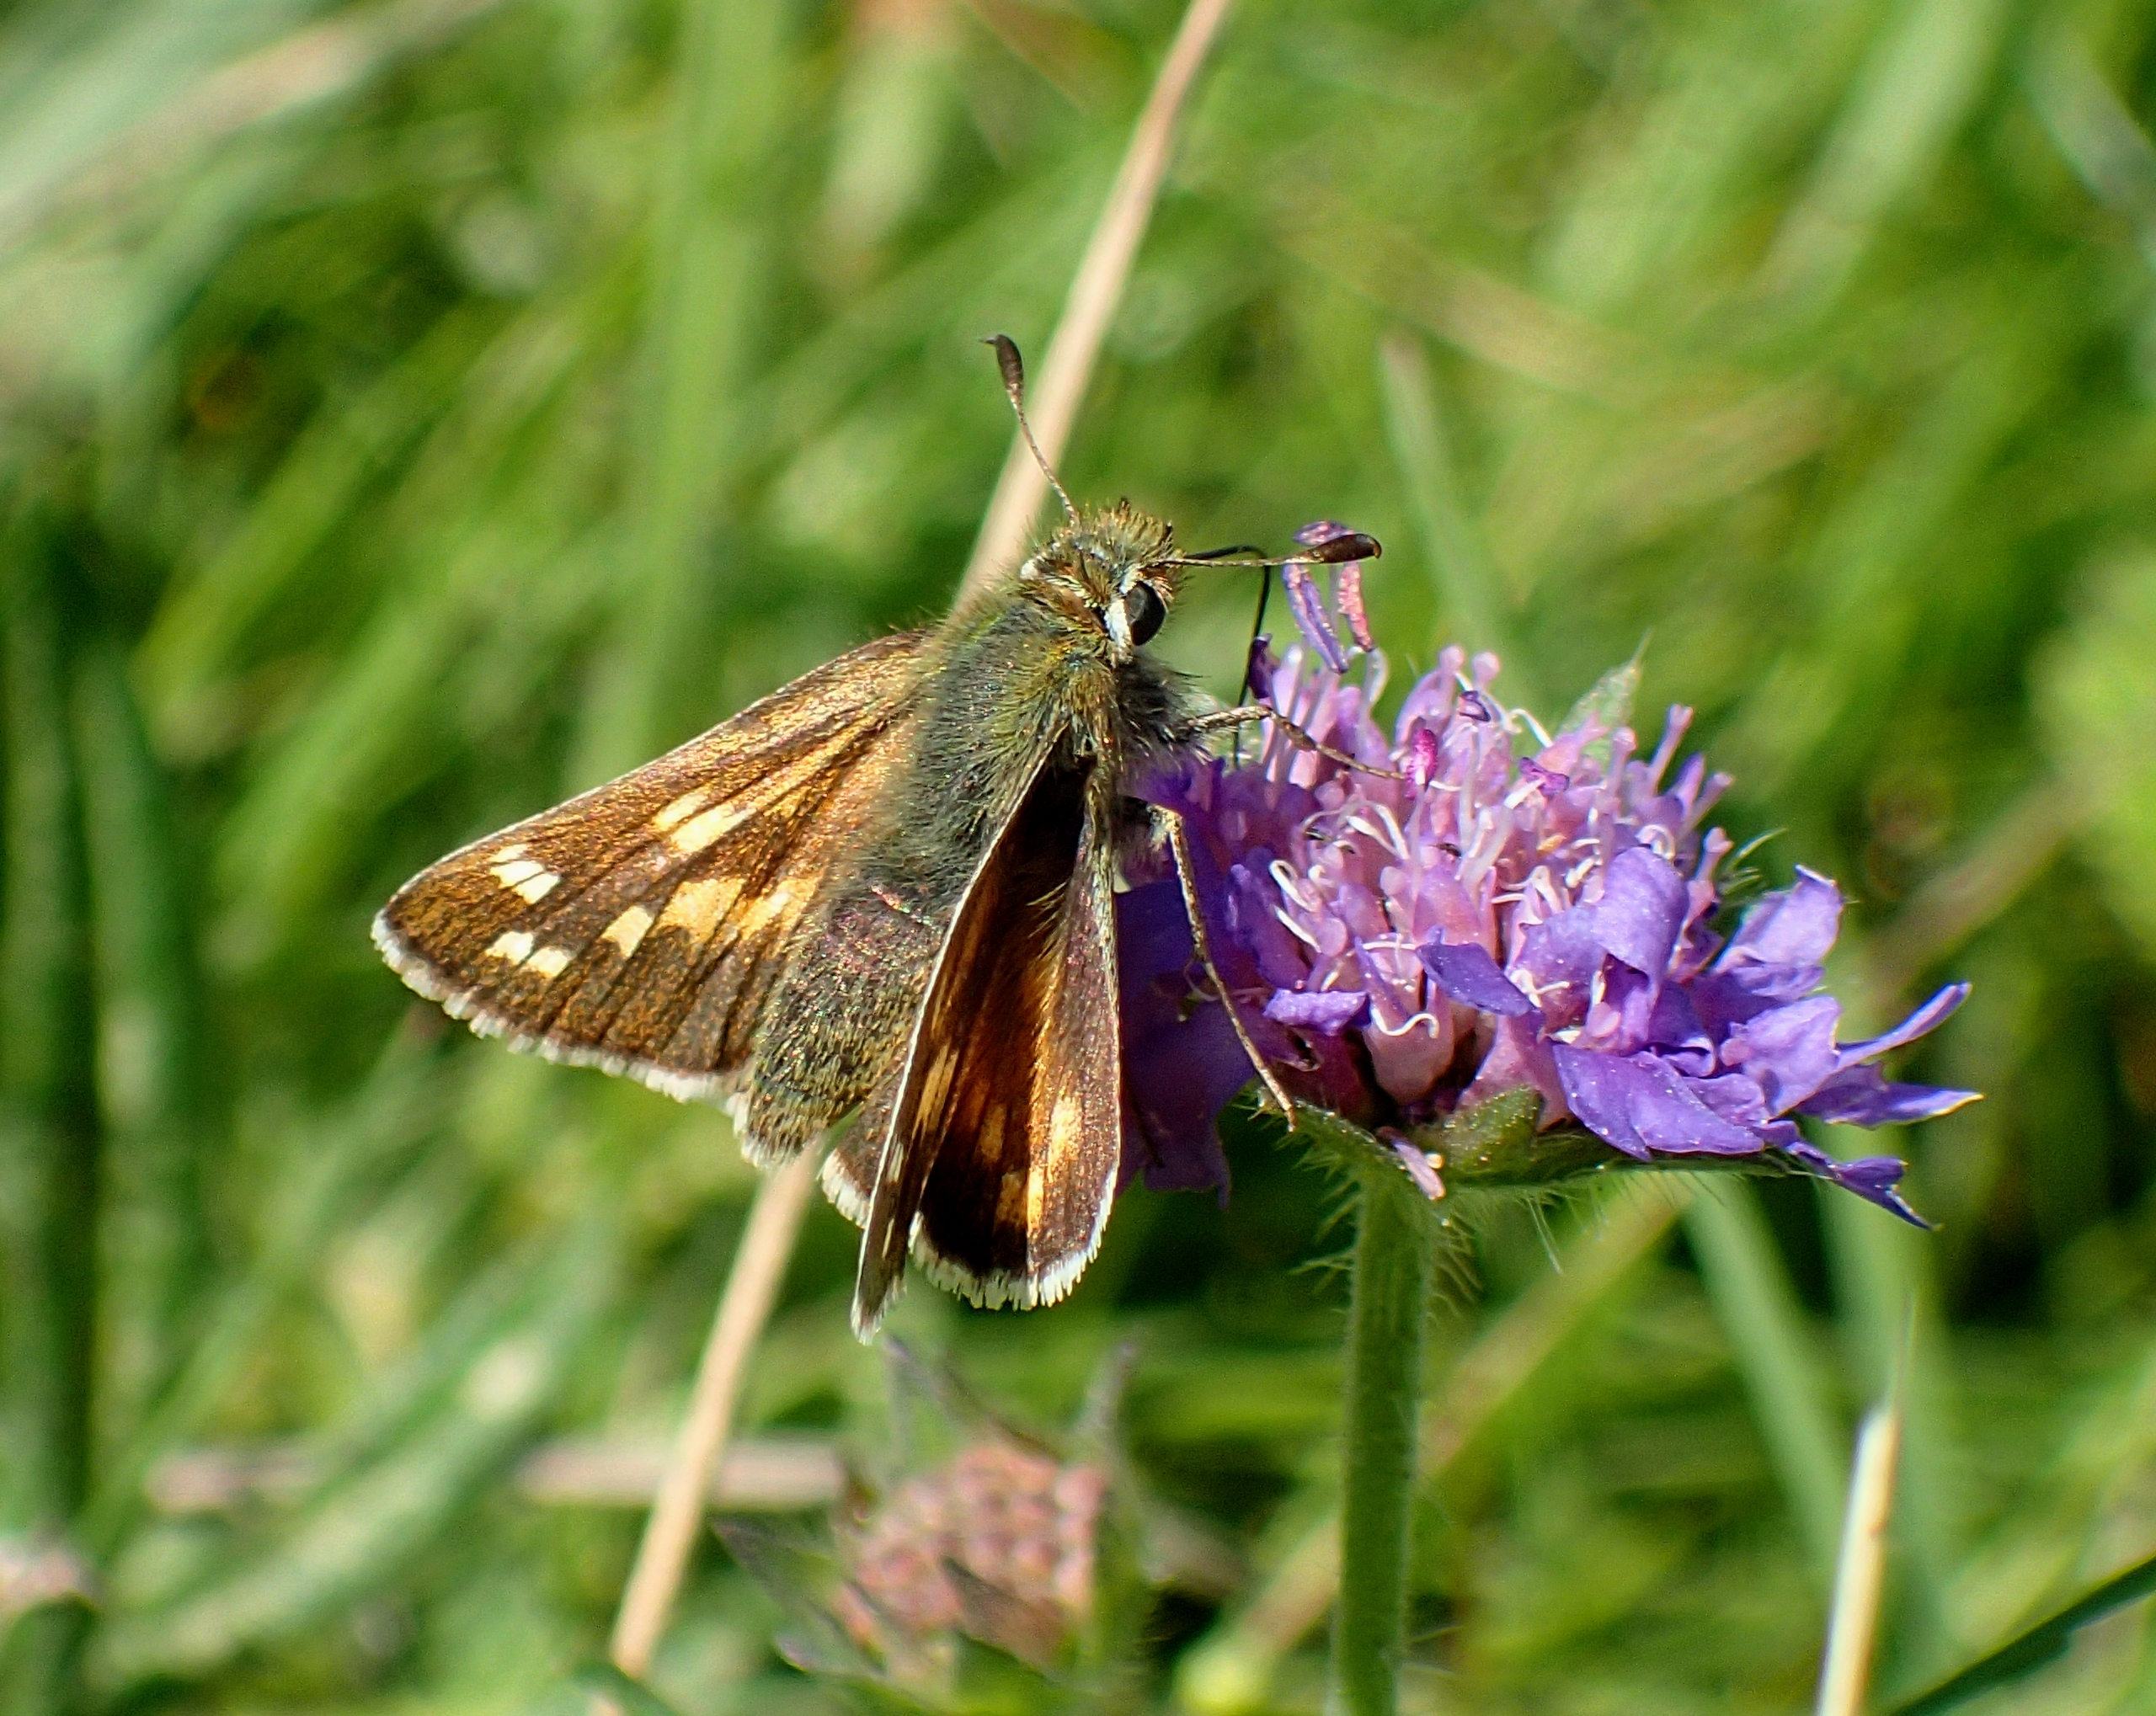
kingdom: Animalia
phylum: Arthropoda
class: Insecta
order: Lepidoptera
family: Hesperiidae
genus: Hesperia
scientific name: Hesperia comma
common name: Kommabredpande
